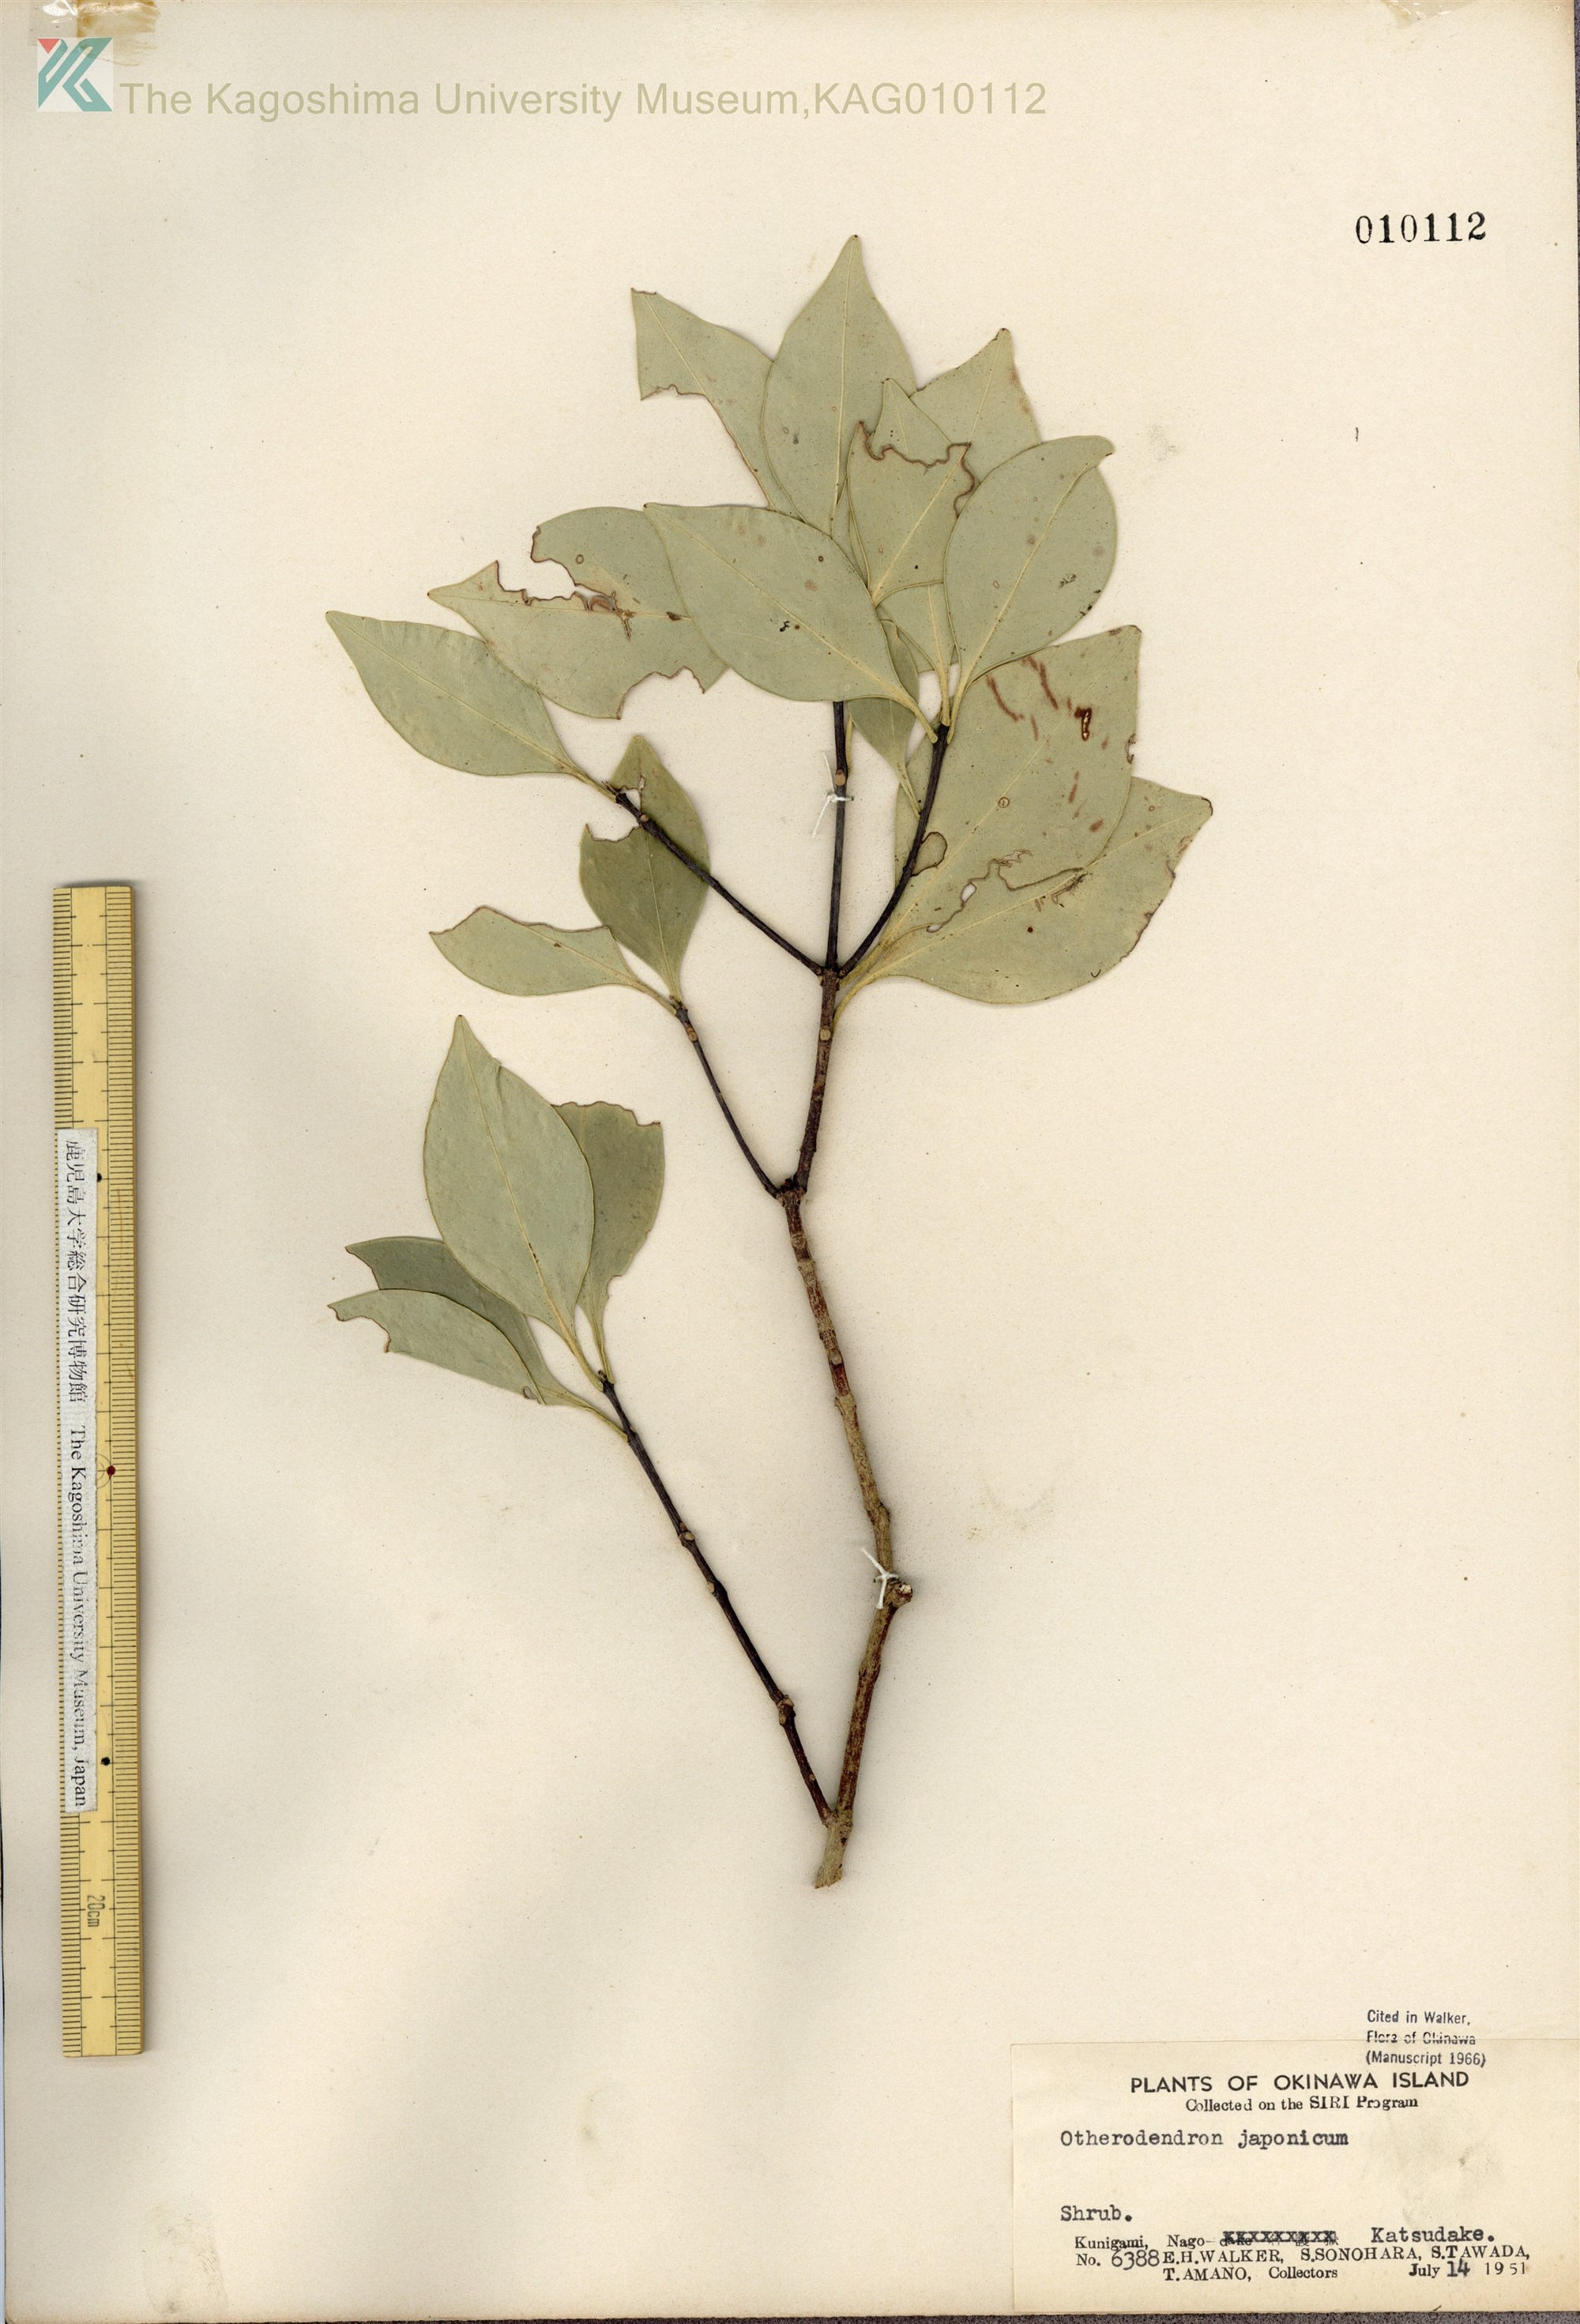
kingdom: Plantae
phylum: Tracheophyta
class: Magnoliopsida
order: Celastrales
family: Celastraceae
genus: Microtropis
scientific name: Microtropis japonica
